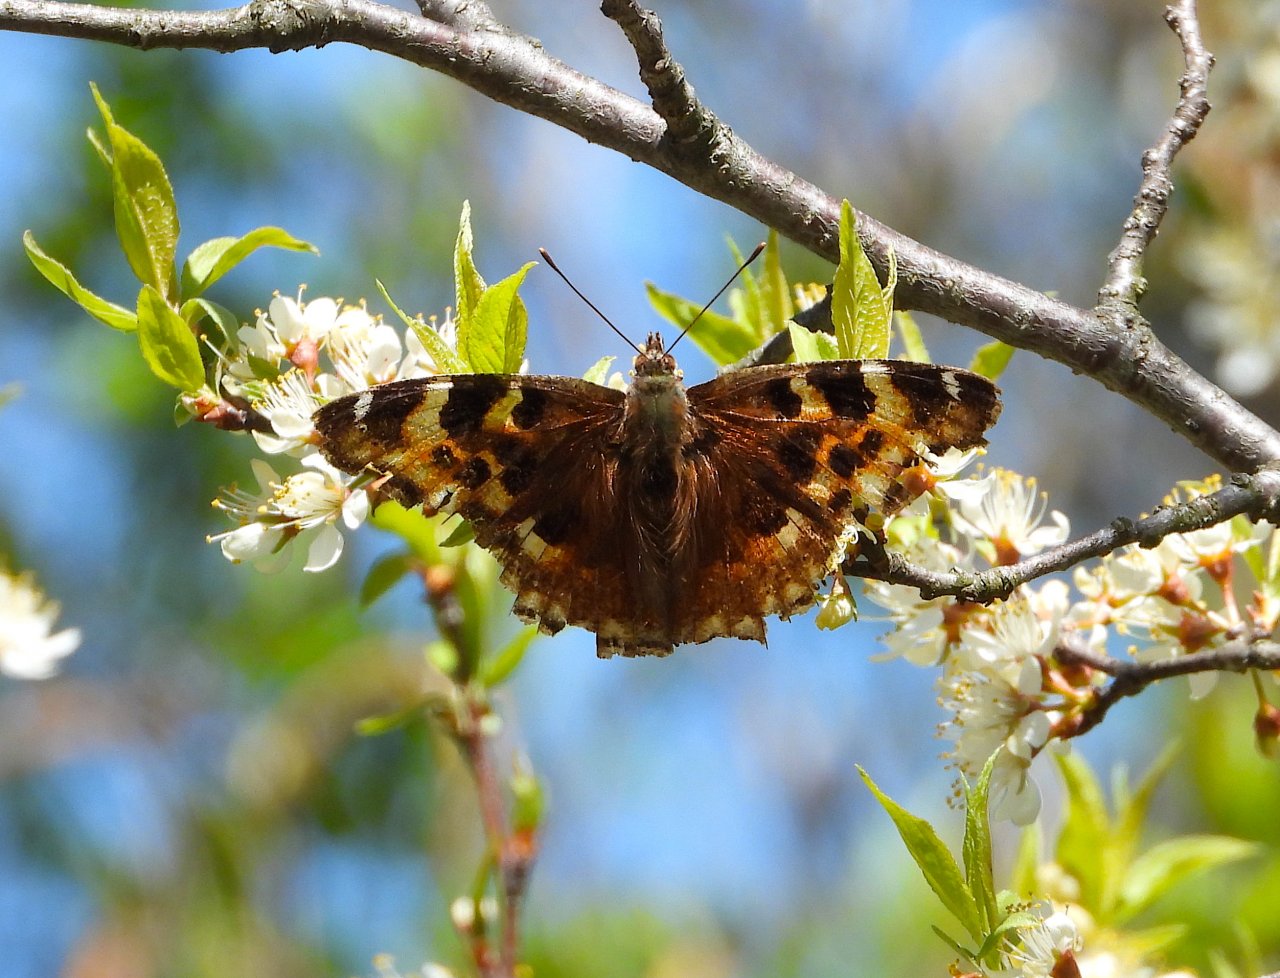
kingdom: Animalia
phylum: Arthropoda
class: Insecta
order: Lepidoptera
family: Nymphalidae
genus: Polygonia
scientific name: Polygonia vaualbum
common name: Compton Tortoiseshell
